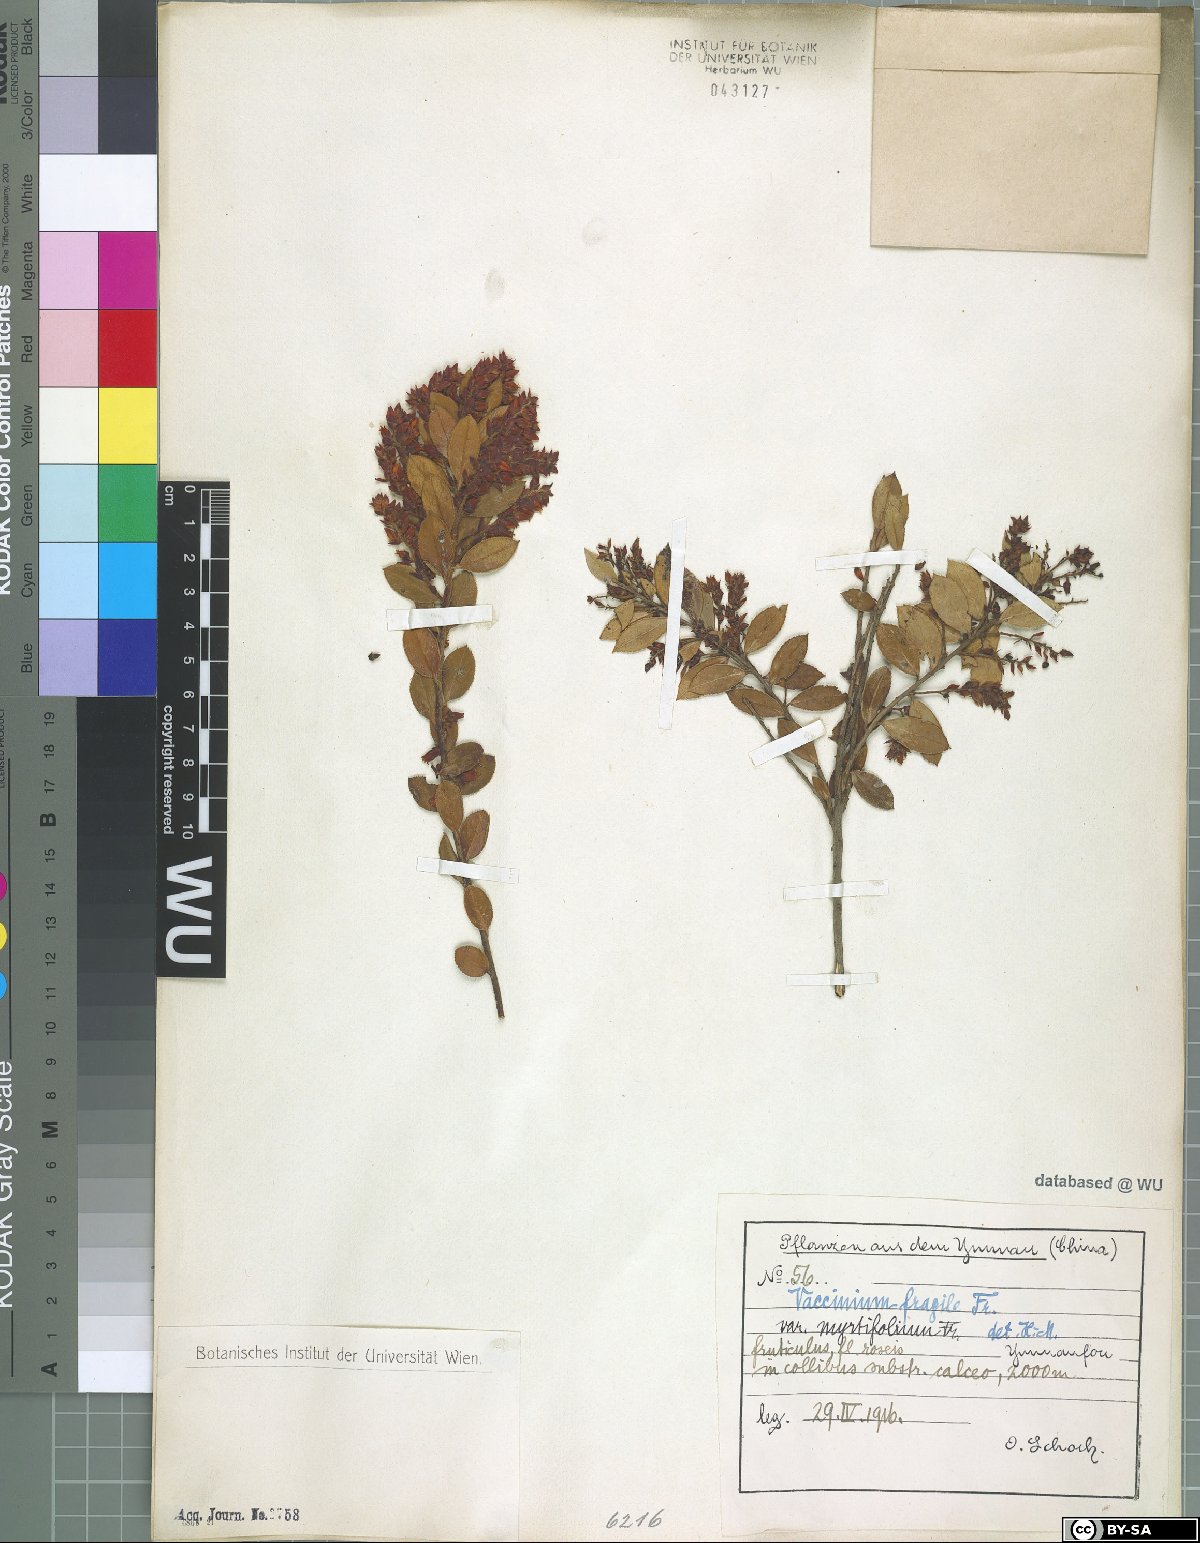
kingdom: Plantae
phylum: Tracheophyta
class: Magnoliopsida
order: Ericales
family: Ericaceae
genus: Vaccinium
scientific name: Vaccinium fragile
